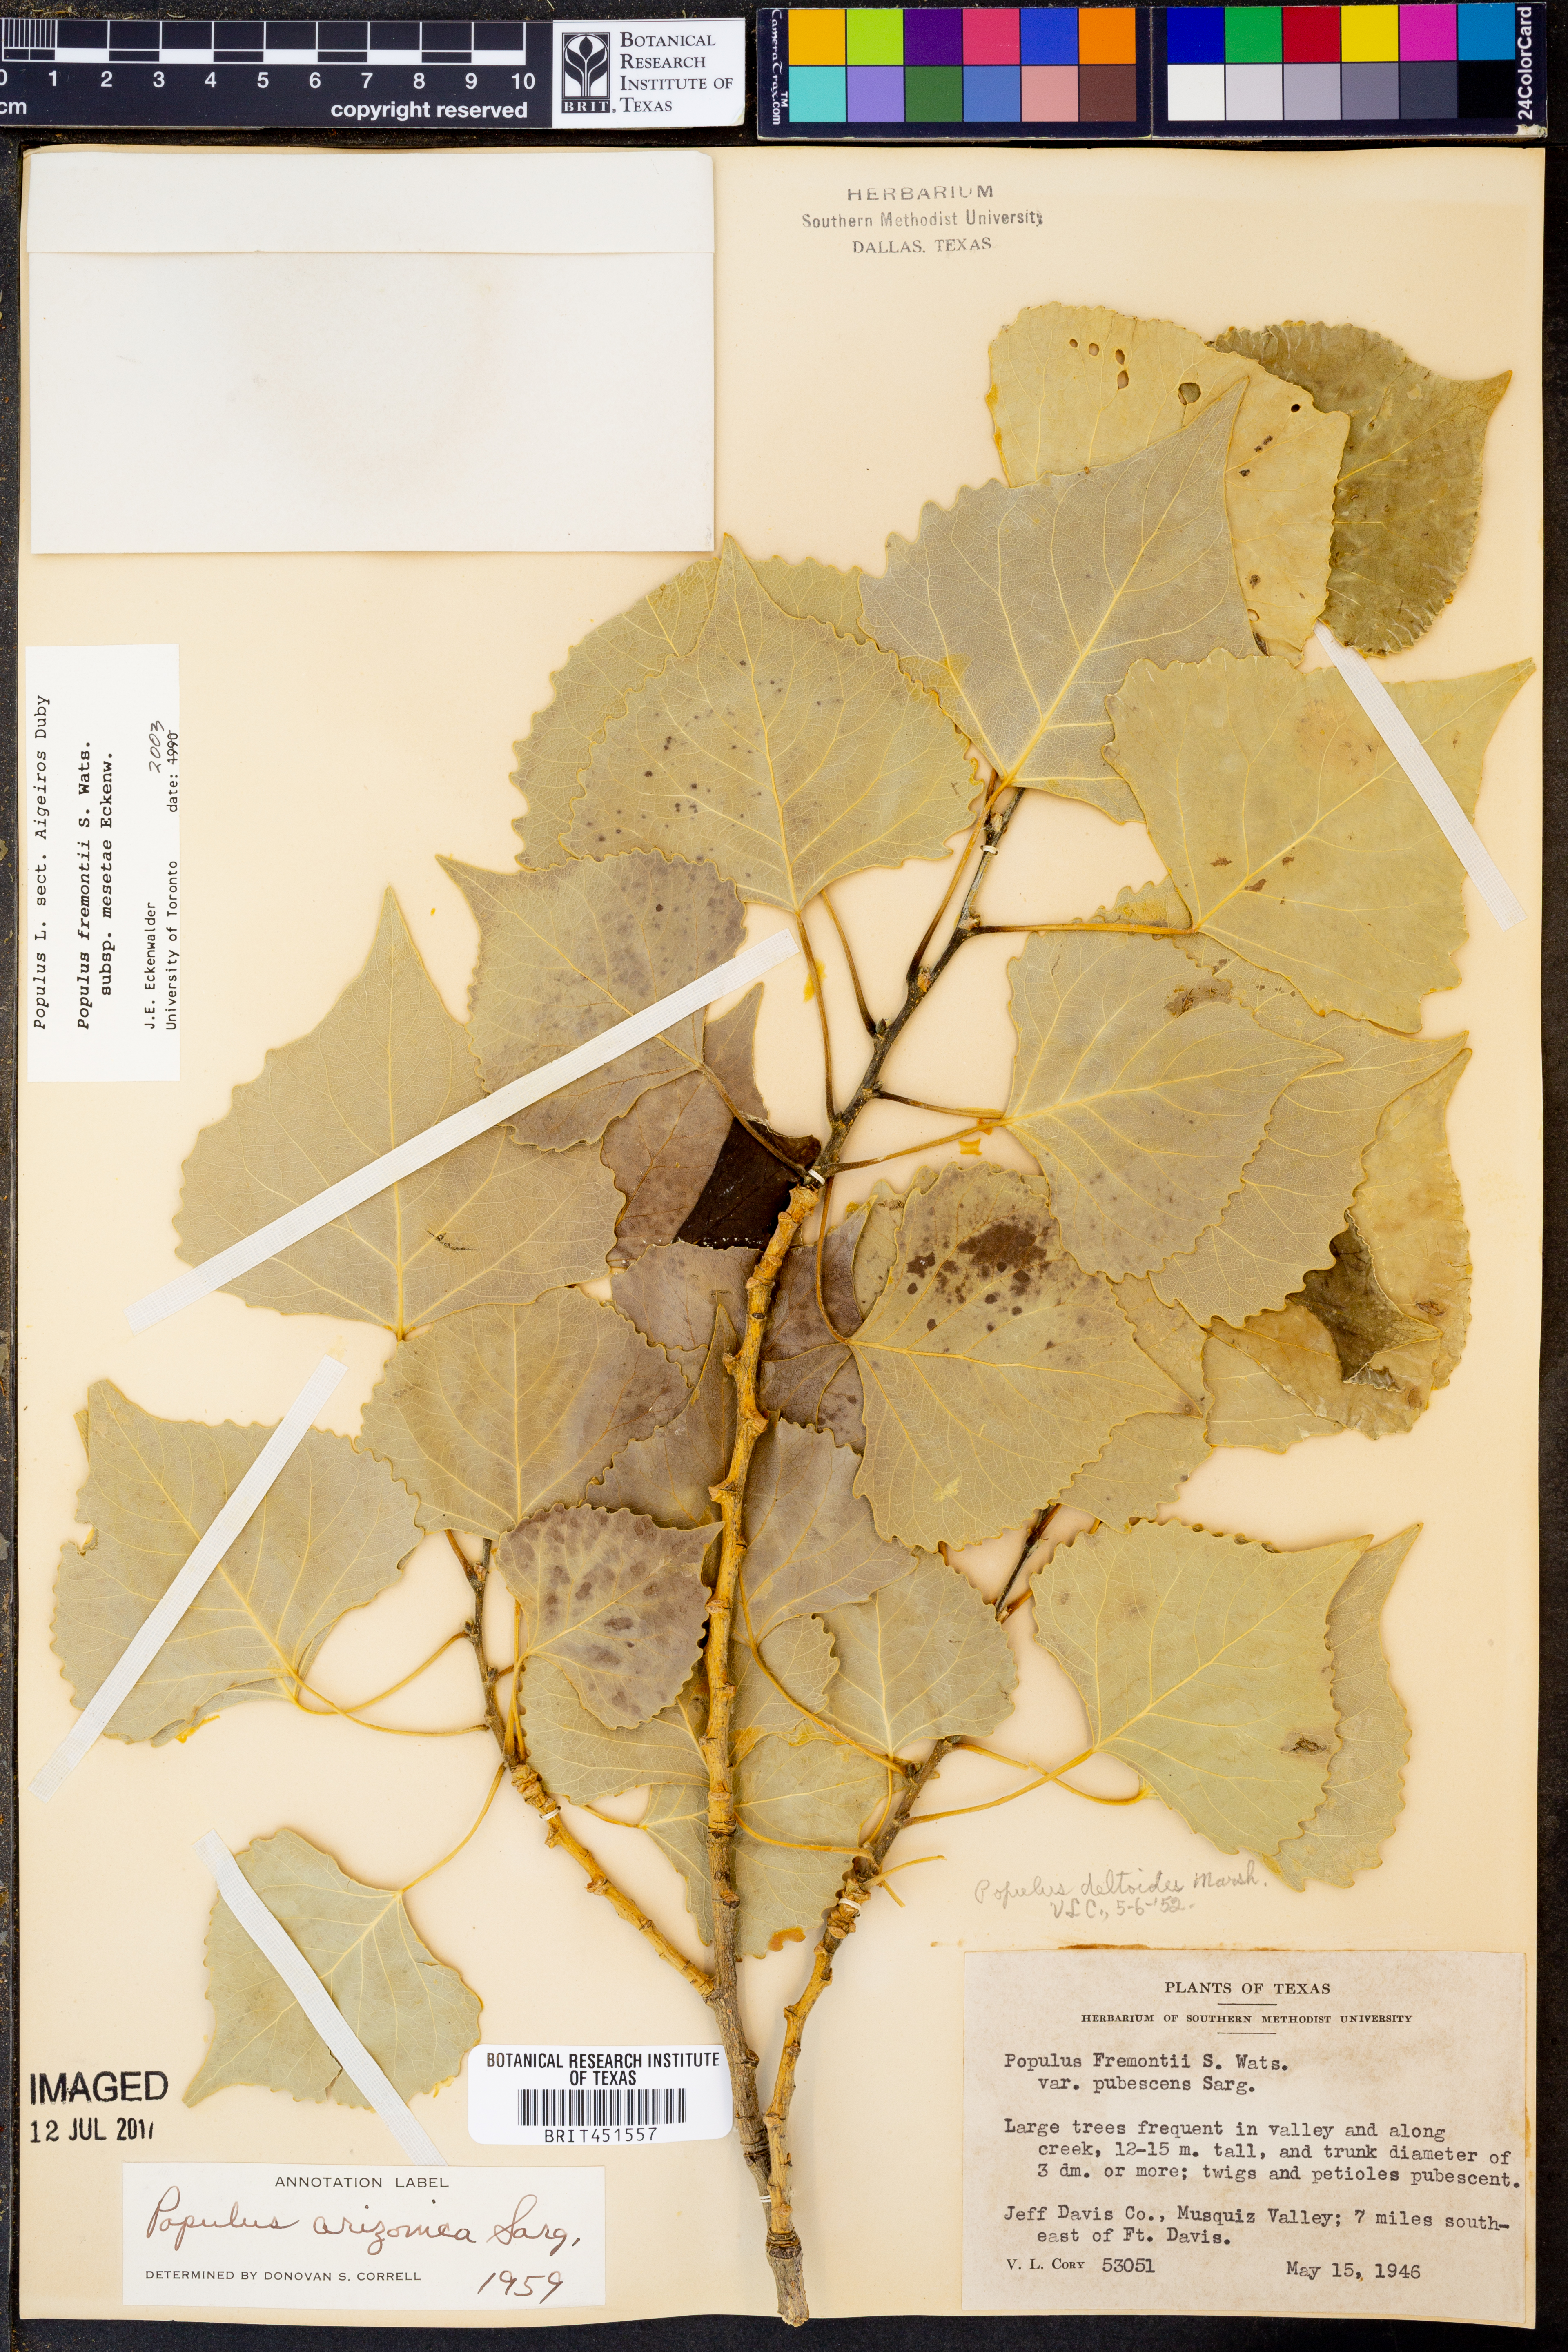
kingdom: Plantae
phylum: Tracheophyta
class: Magnoliopsida
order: Malpighiales
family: Salicaceae
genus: Populus
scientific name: Populus fremontii
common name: Fremont's cottonwood
